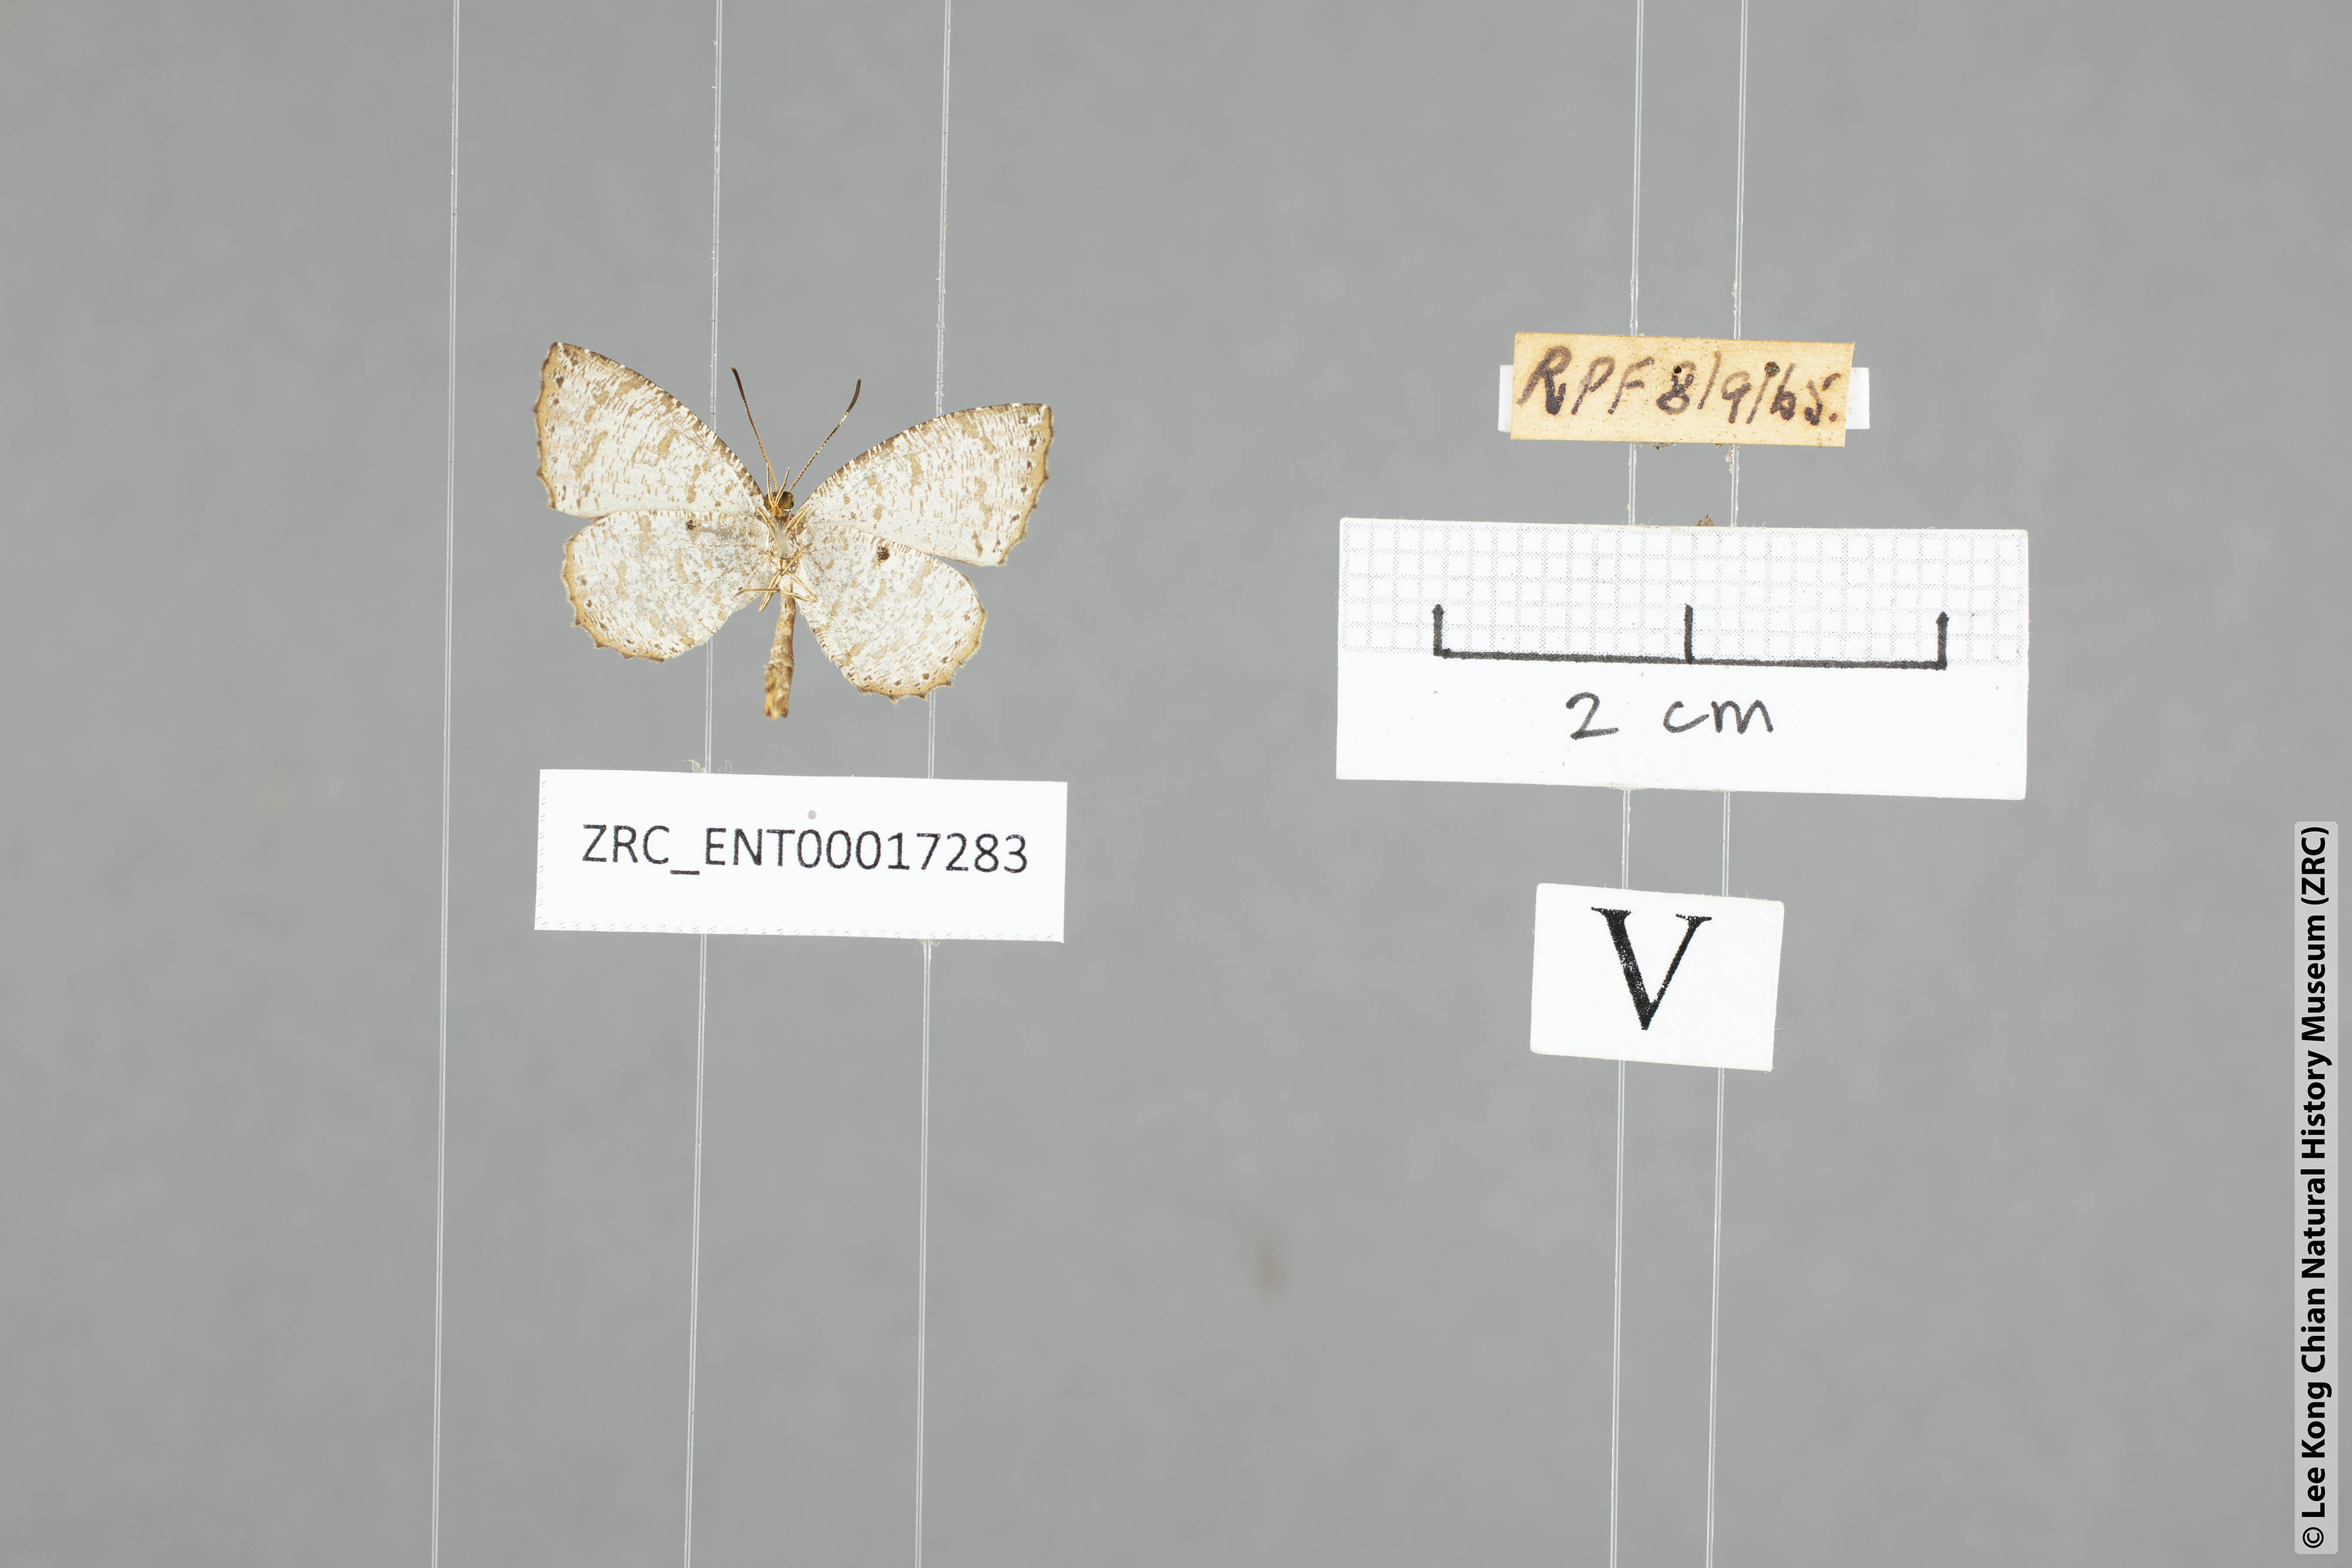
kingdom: Animalia
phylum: Arthropoda
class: Insecta
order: Lepidoptera
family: Lycaenidae
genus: Allotinus
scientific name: Allotinus substrigosa
